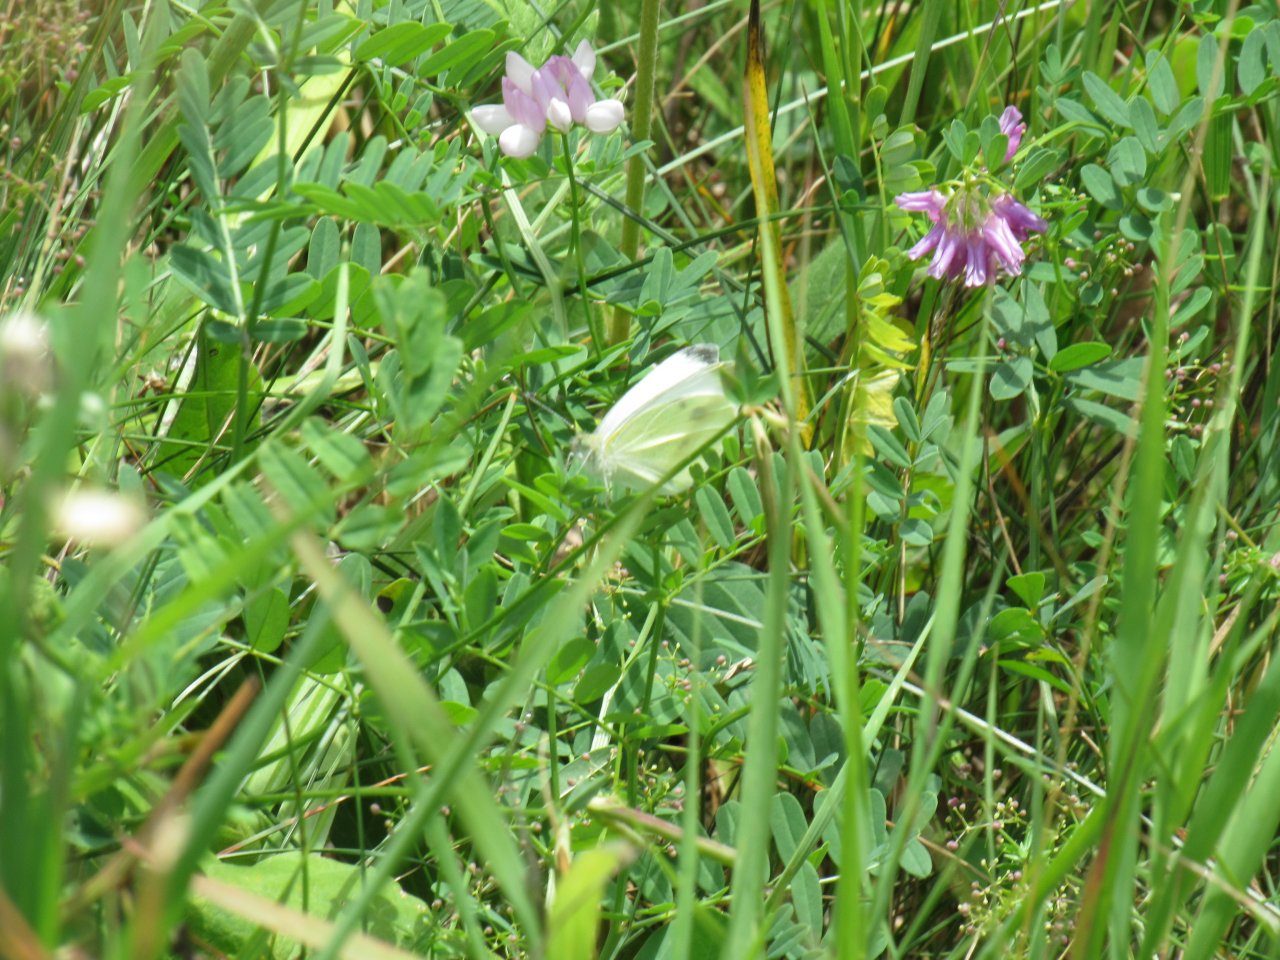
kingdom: Animalia
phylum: Arthropoda
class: Insecta
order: Lepidoptera
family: Pieridae
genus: Pieris
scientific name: Pieris rapae
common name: Cabbage White
